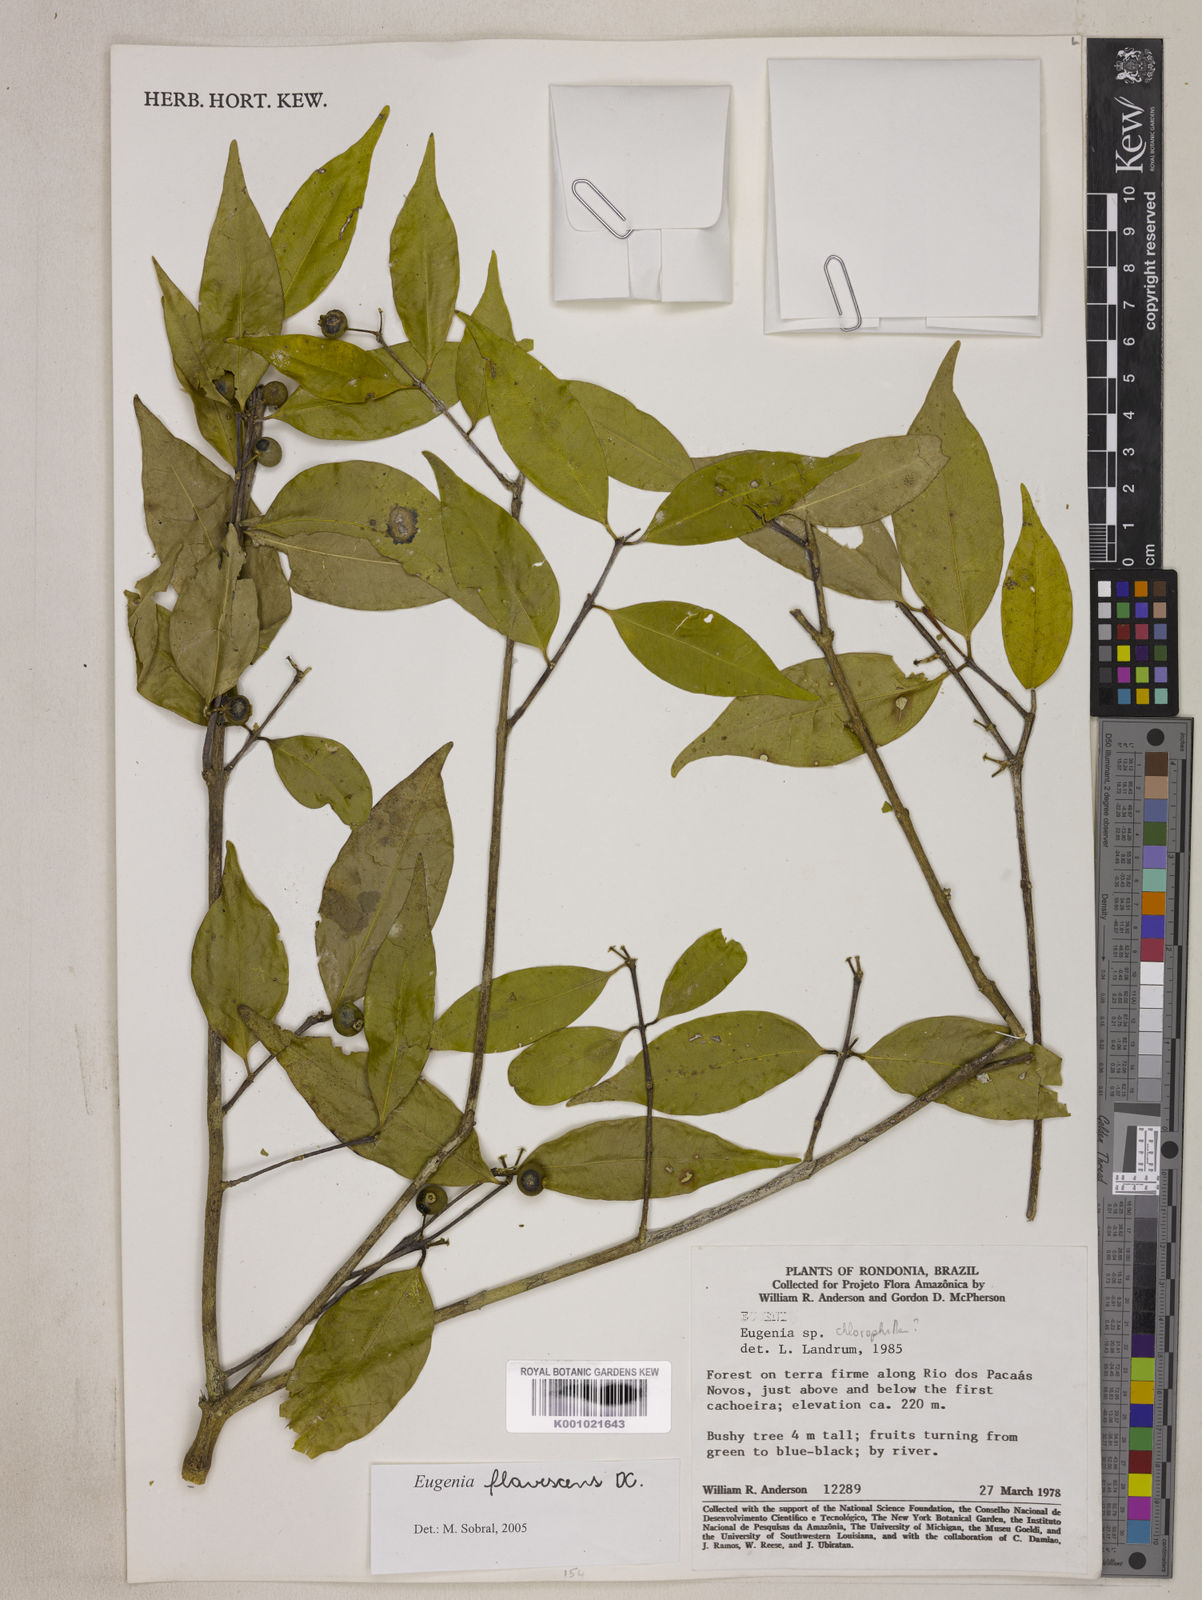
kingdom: Plantae
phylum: Tracheophyta
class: Magnoliopsida
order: Myrtales
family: Myrtaceae
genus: Eugenia
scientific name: Eugenia flavescens
